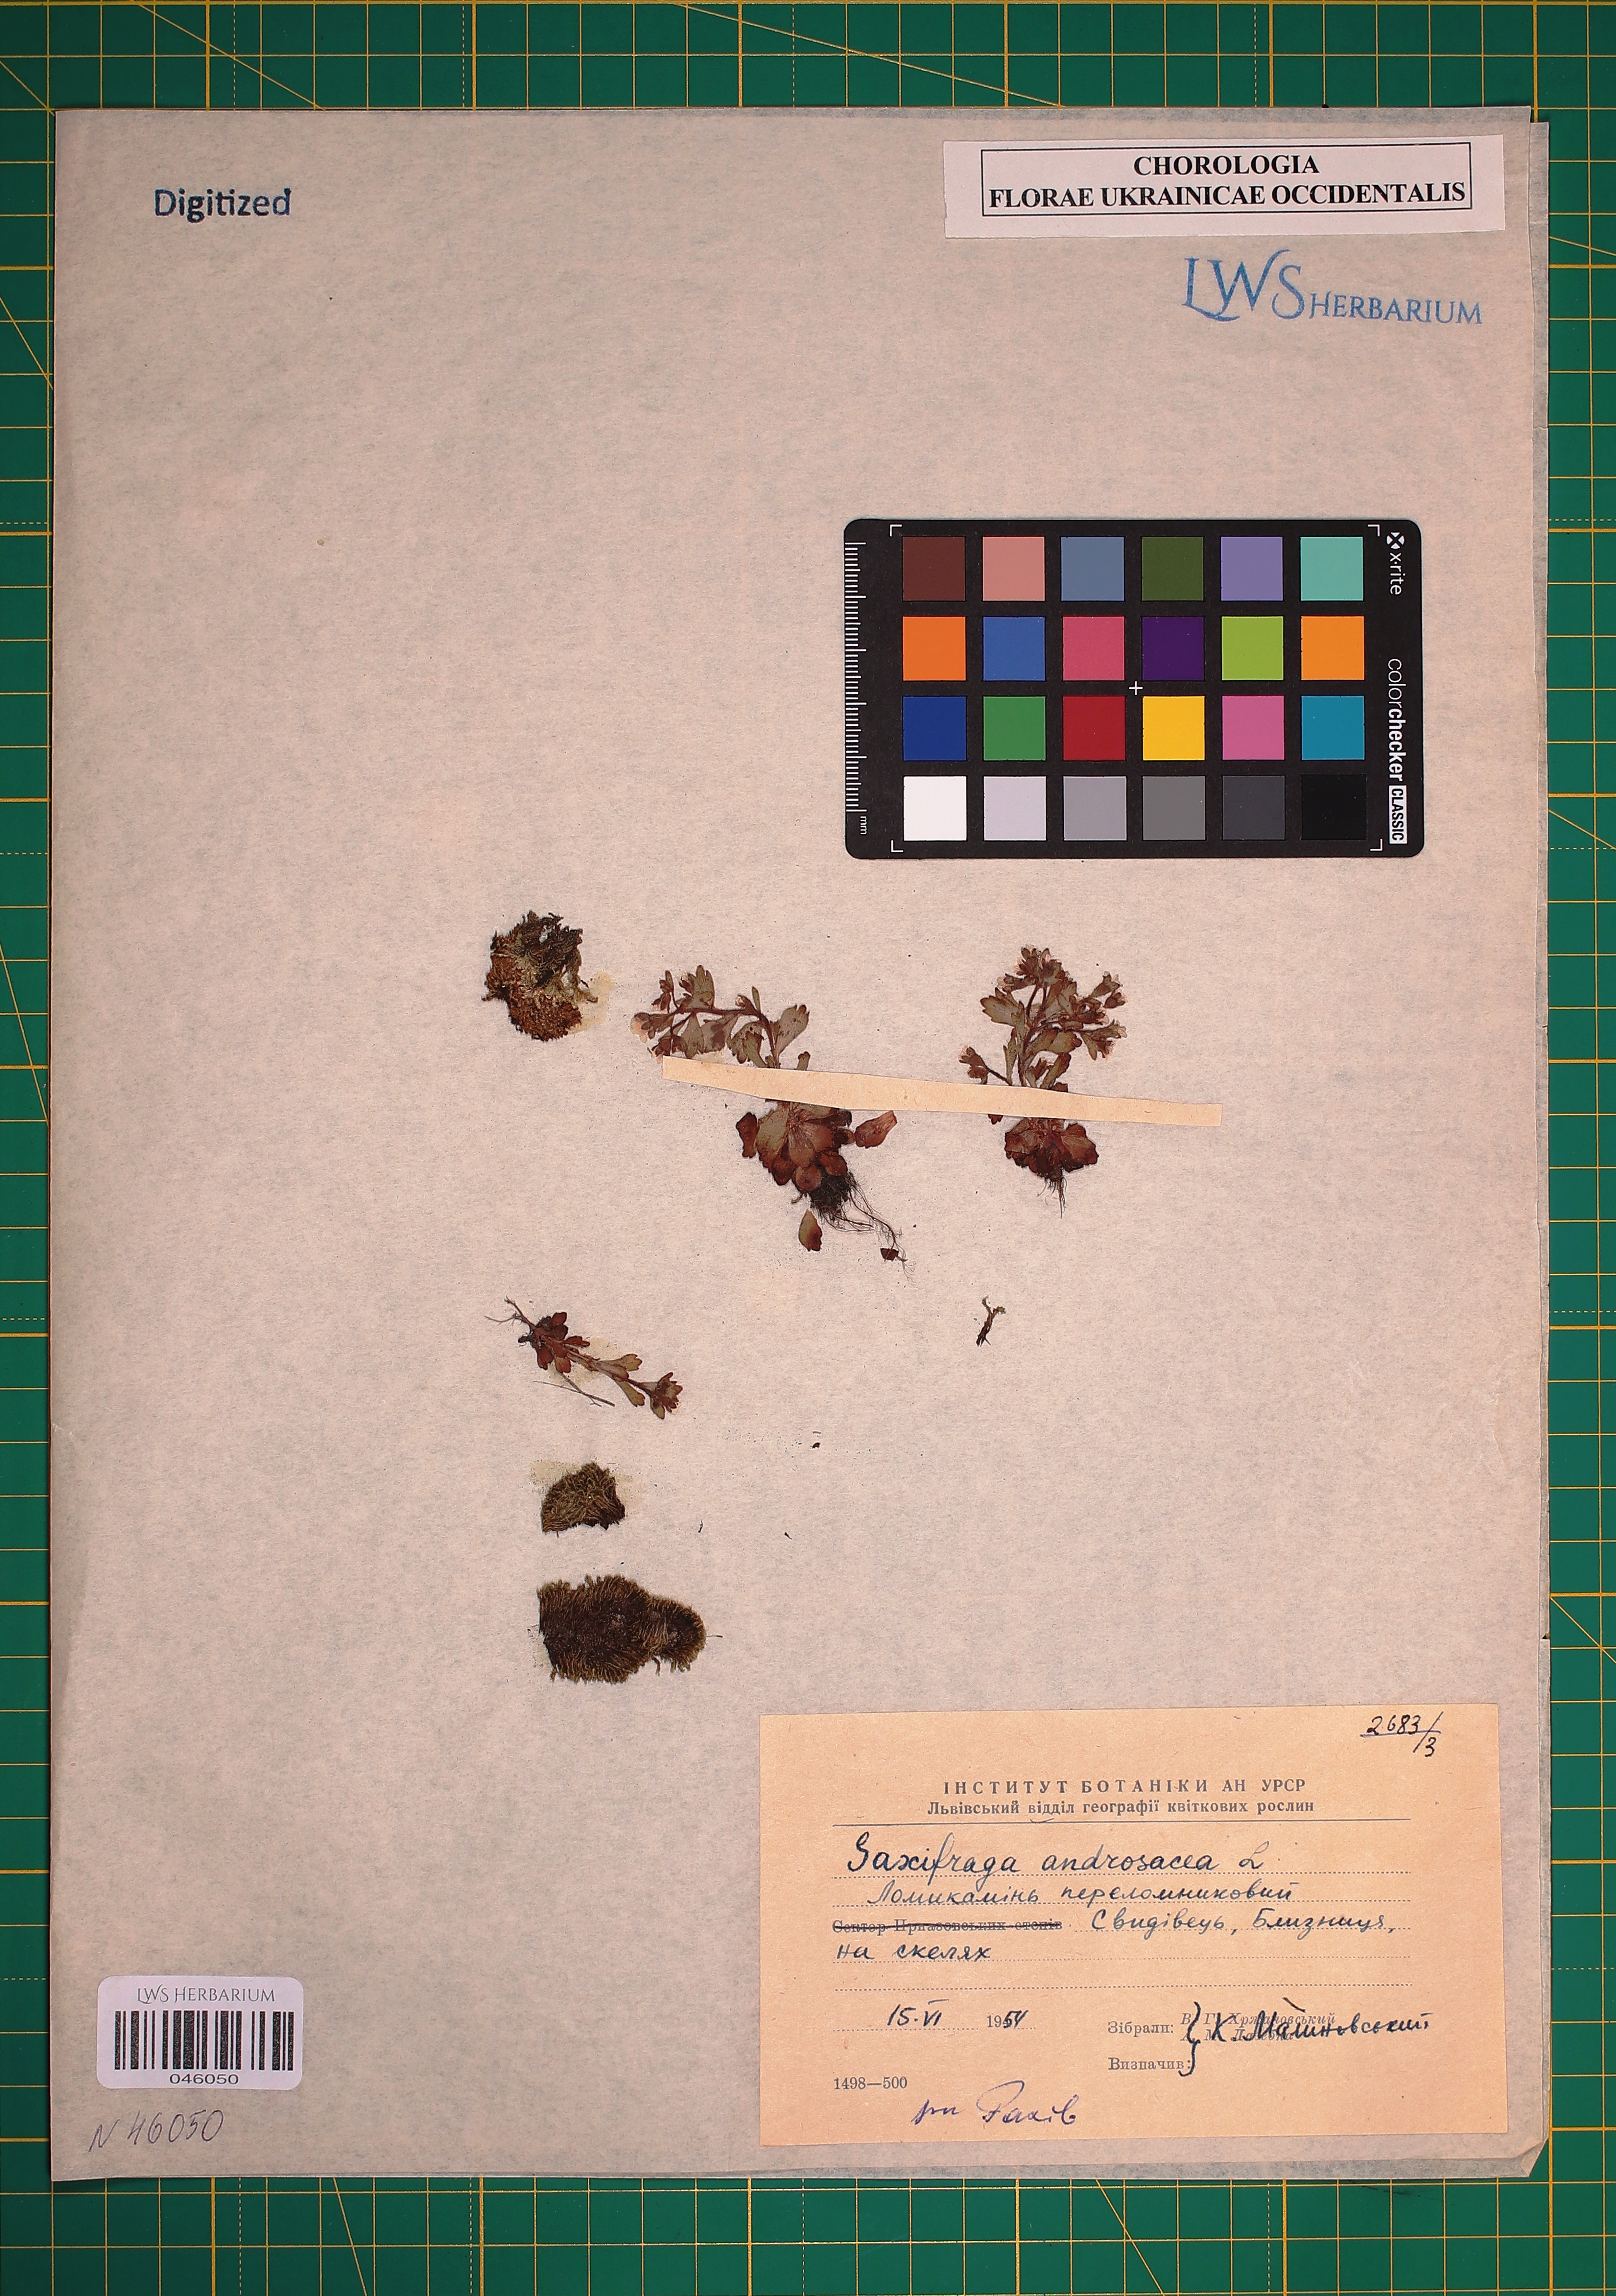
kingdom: Plantae
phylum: Tracheophyta
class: Magnoliopsida
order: Saxifragales
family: Saxifragaceae
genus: Saxifraga
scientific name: Saxifraga androsacea
